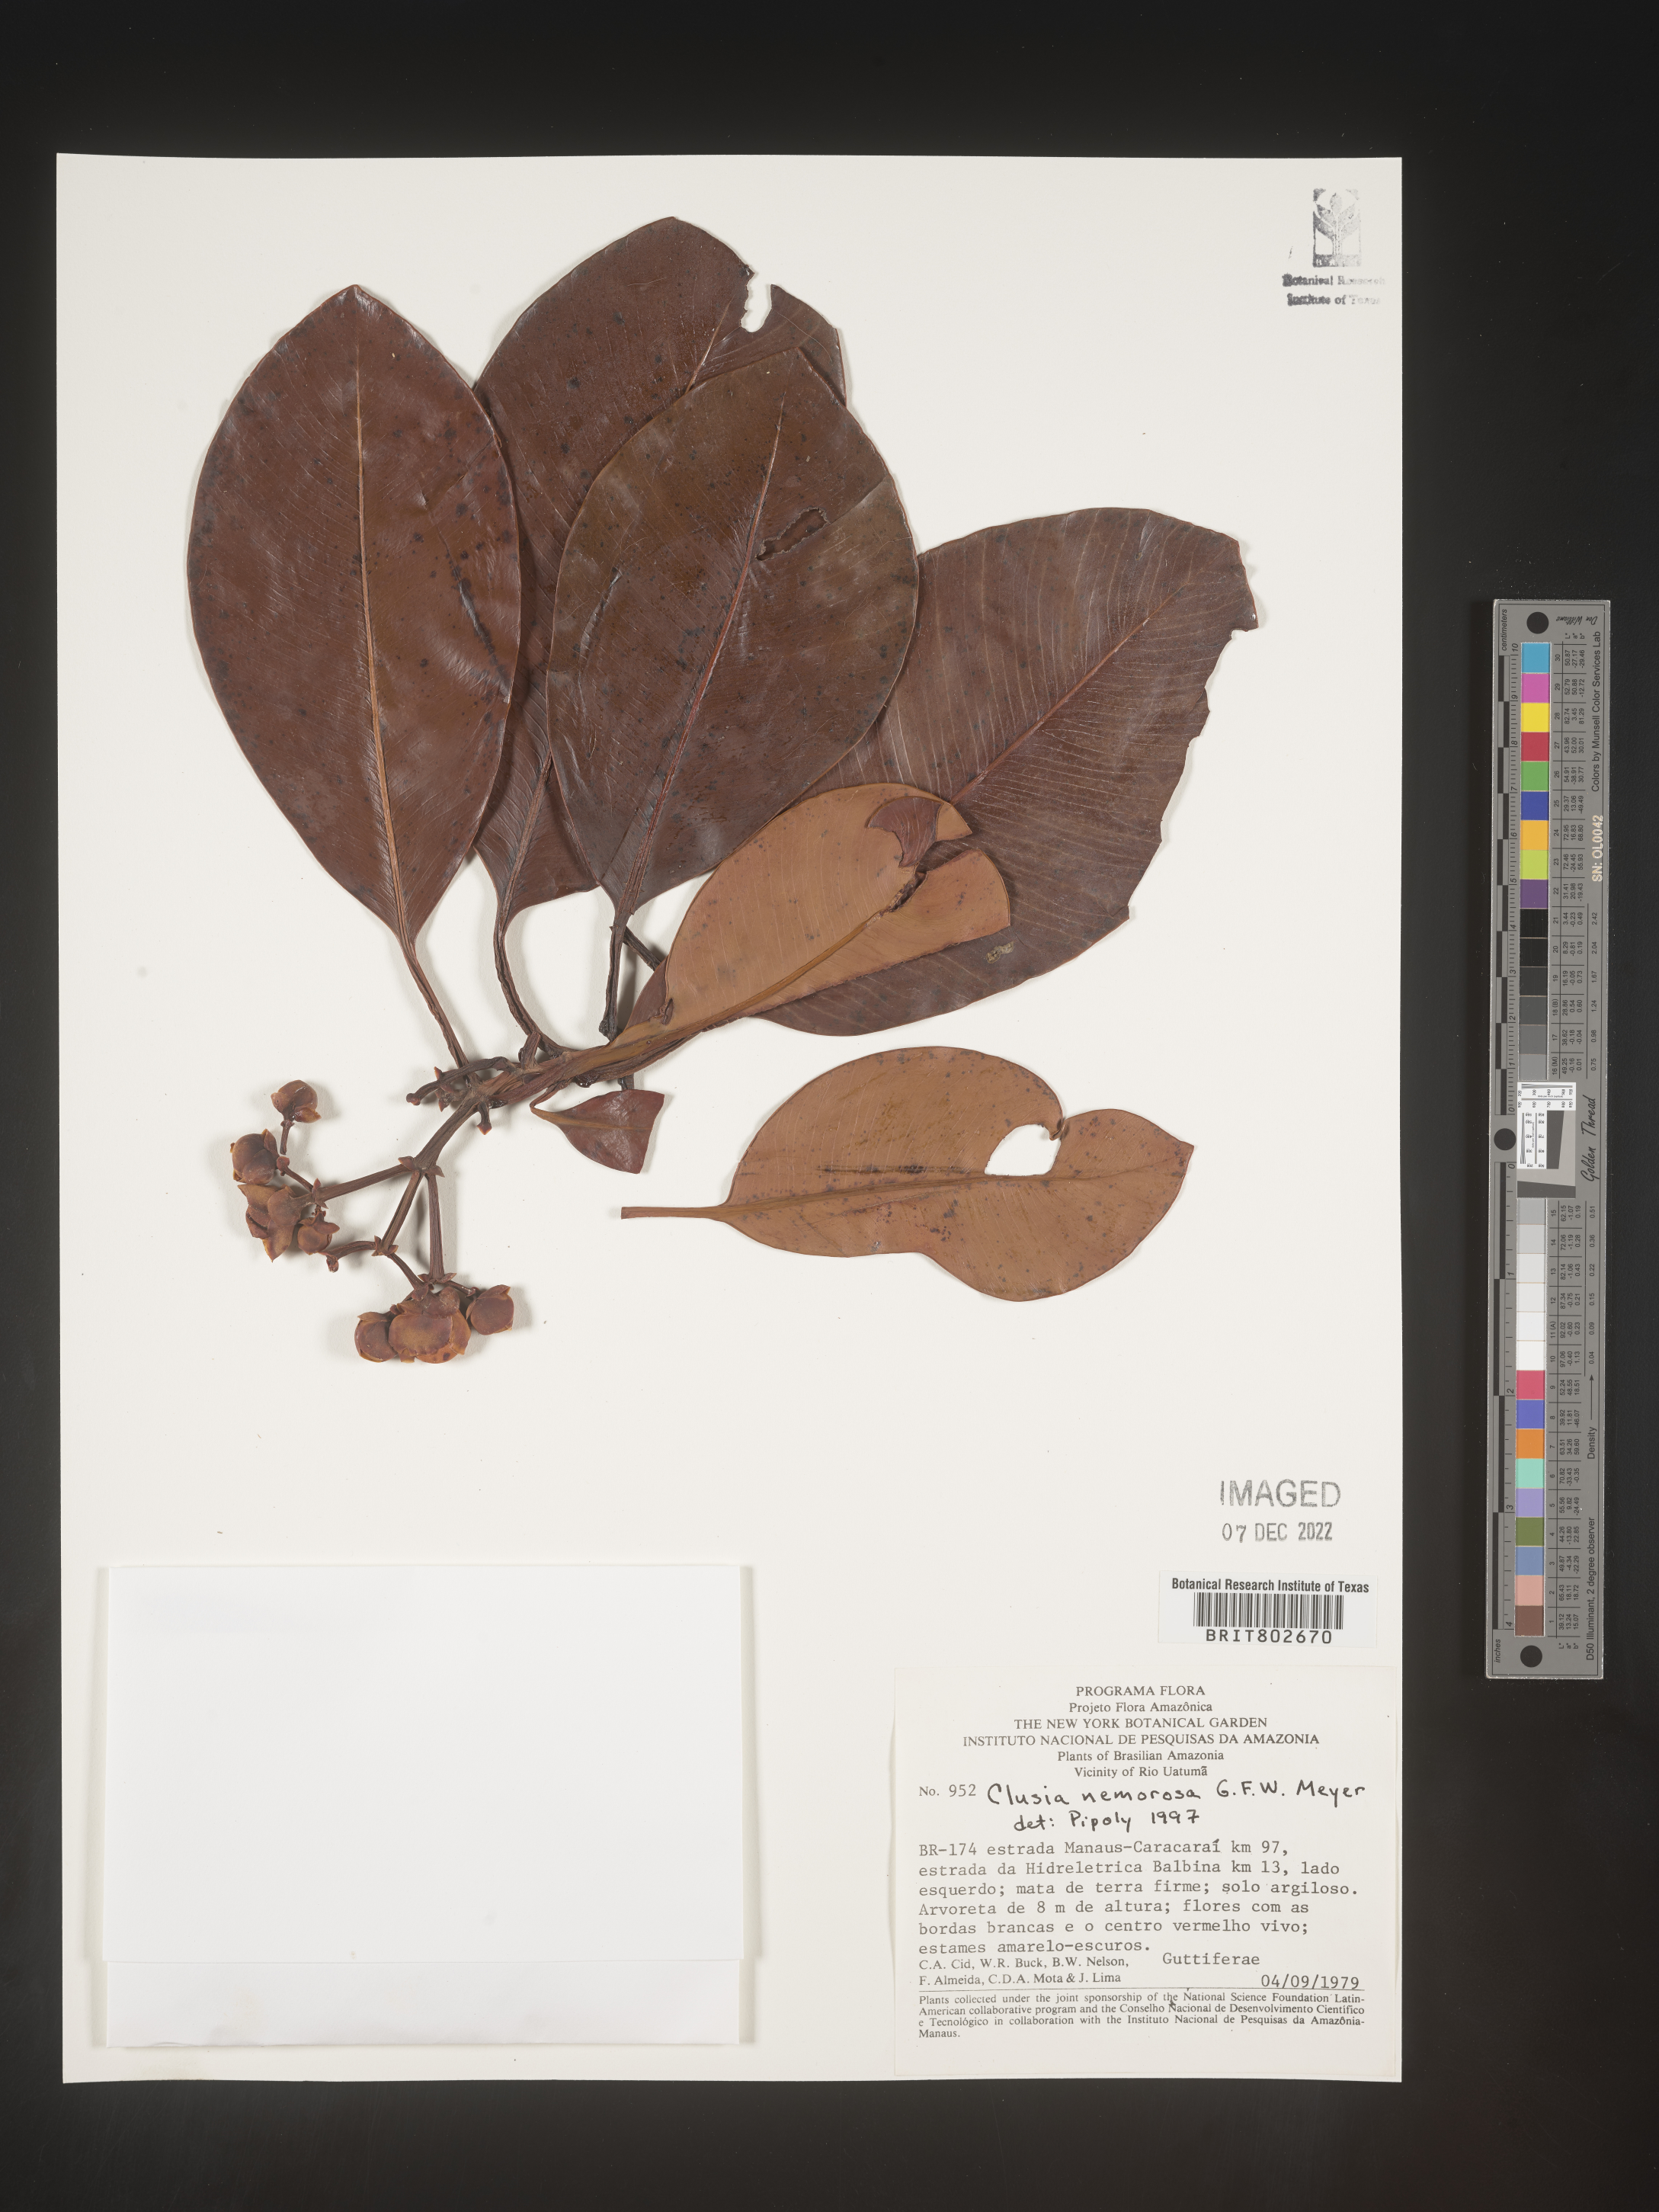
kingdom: Plantae
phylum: Tracheophyta
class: Magnoliopsida
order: Malpighiales
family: Clusiaceae
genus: Clusia
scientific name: Clusia nemorosa
